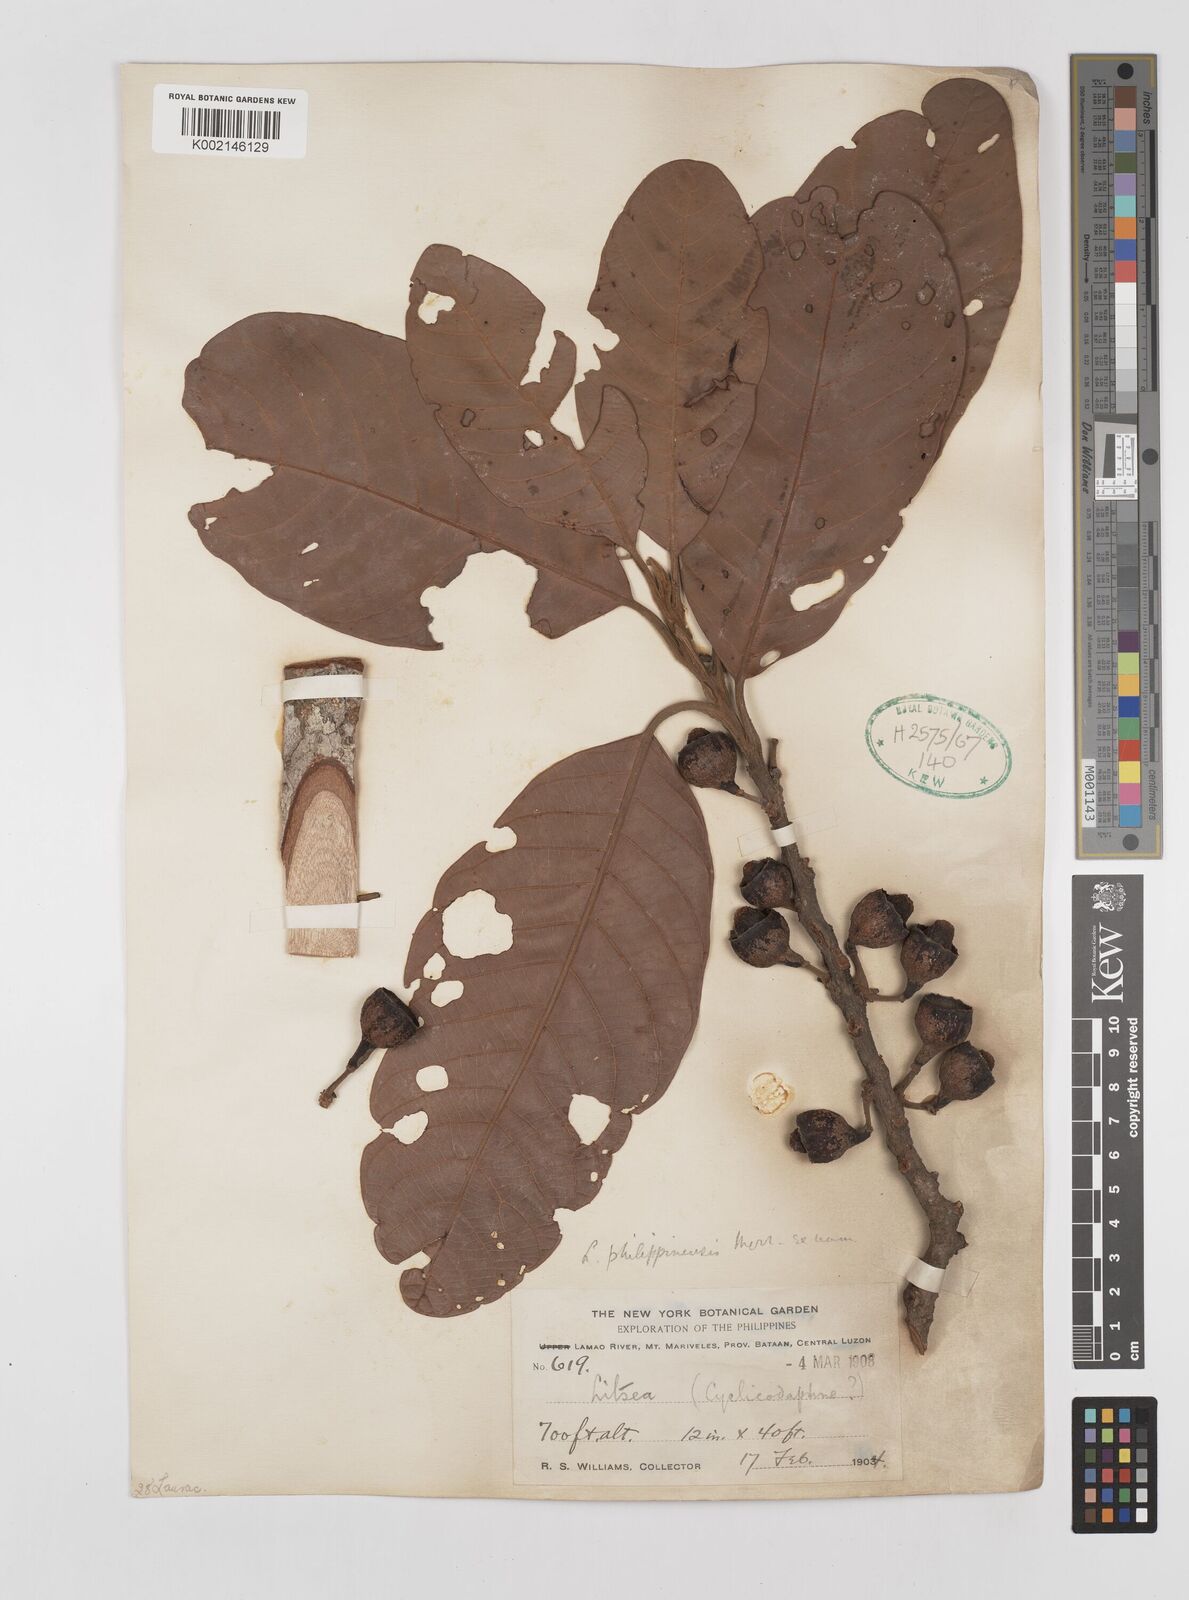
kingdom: Plantae
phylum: Tracheophyta
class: Magnoliopsida
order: Laurales
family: Lauraceae
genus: Litsea
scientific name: Litsea philippinensis
